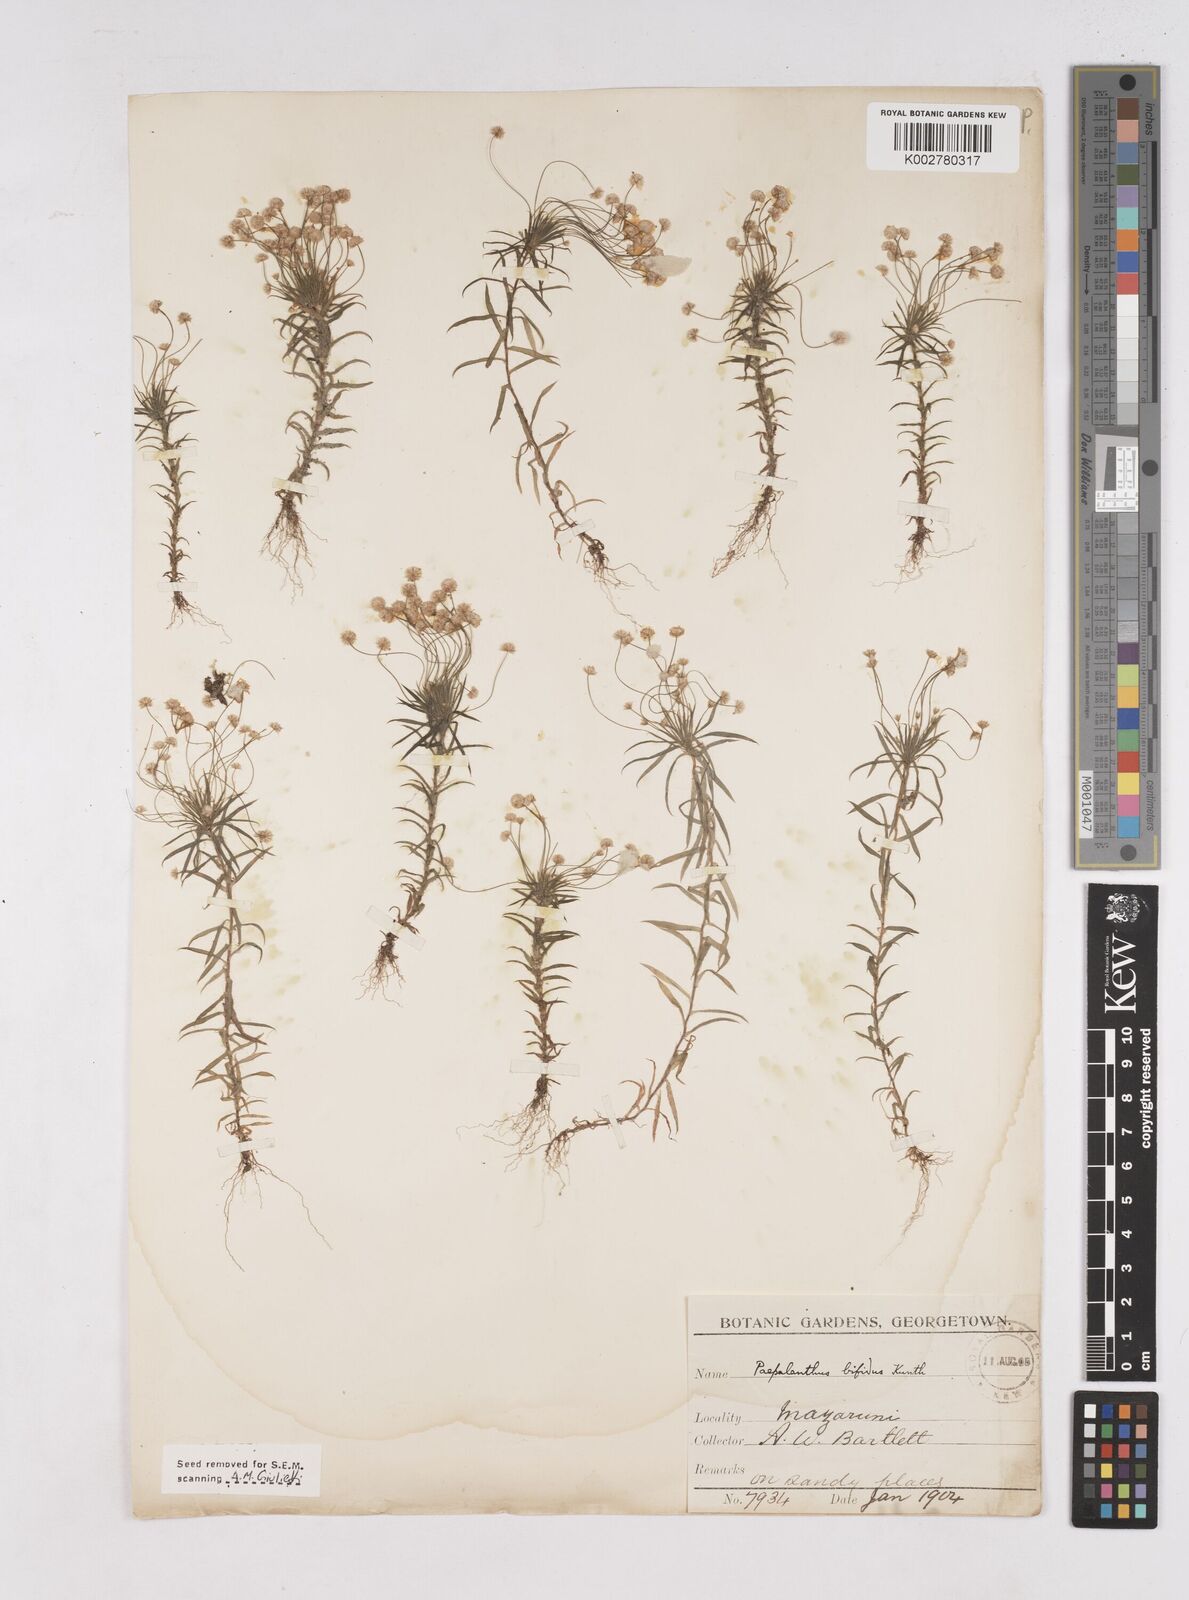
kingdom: Plantae
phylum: Tracheophyta
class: Liliopsida
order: Poales
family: Eriocaulaceae
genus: Paepalanthus
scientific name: Paepalanthus bifidus
